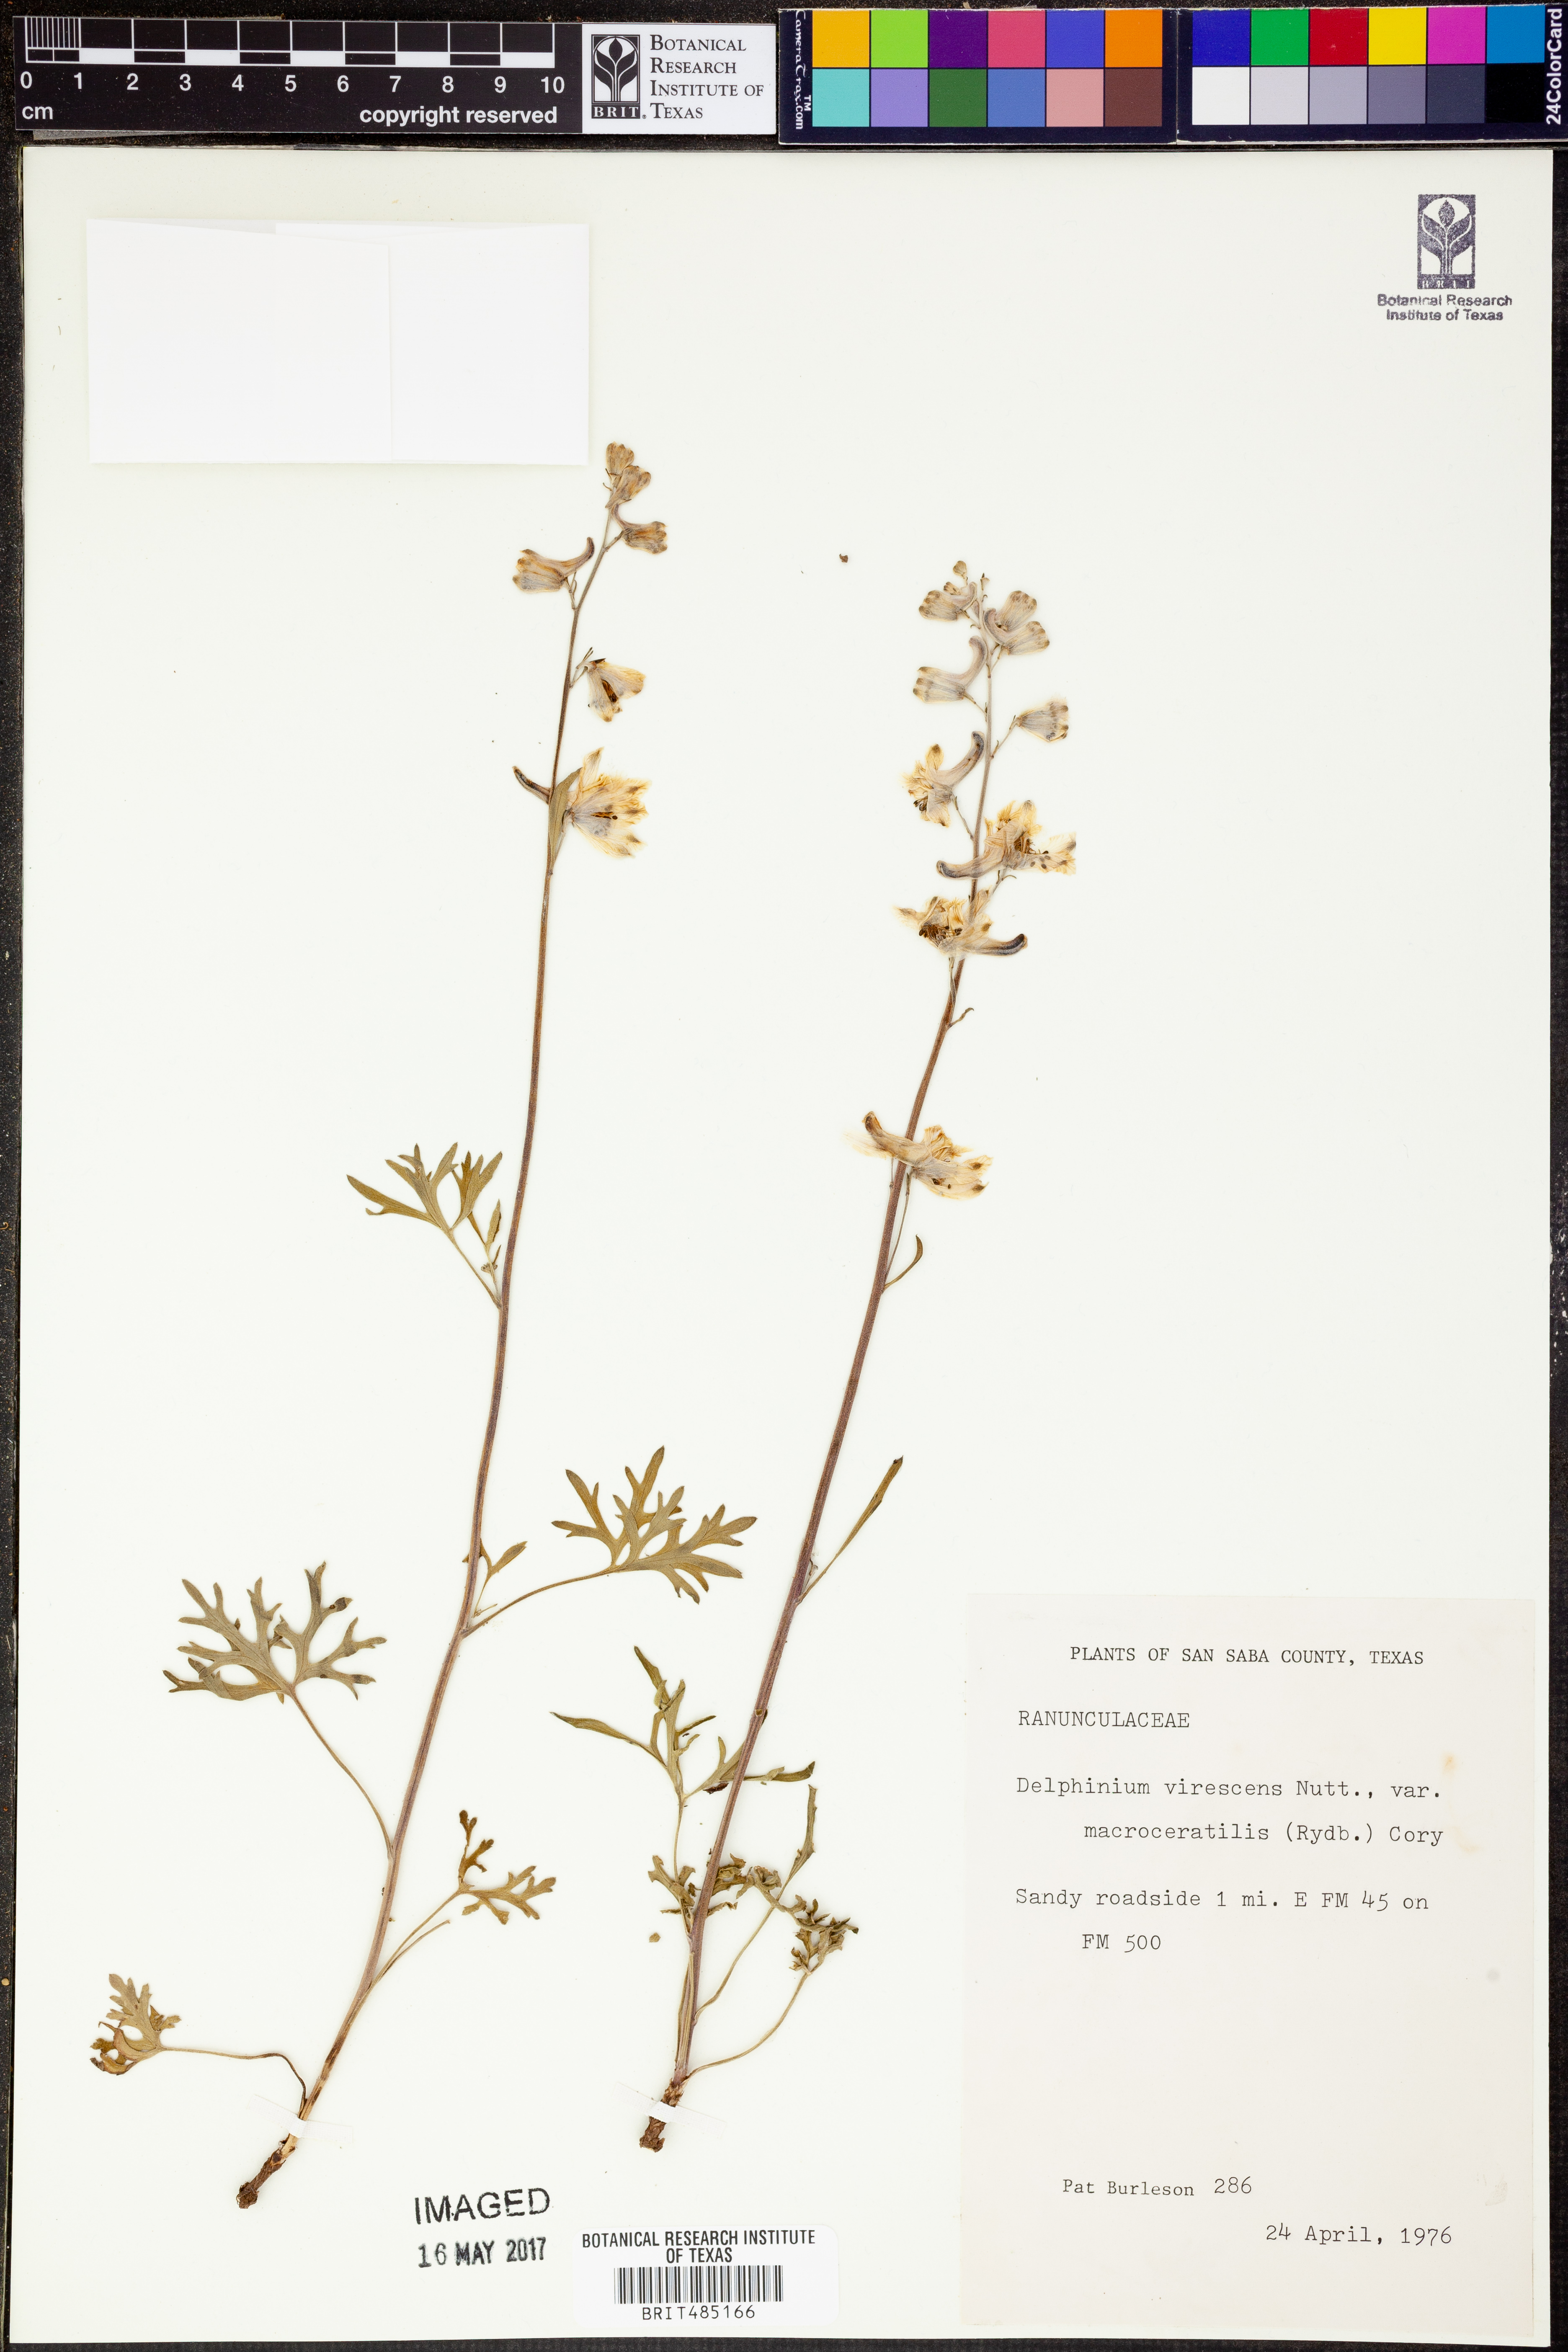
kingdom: Plantae
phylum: Tracheophyta
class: Magnoliopsida
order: Ranunculales
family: Ranunculaceae
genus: Delphinium
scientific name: Delphinium carolinianum
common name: Carolina larkspur
